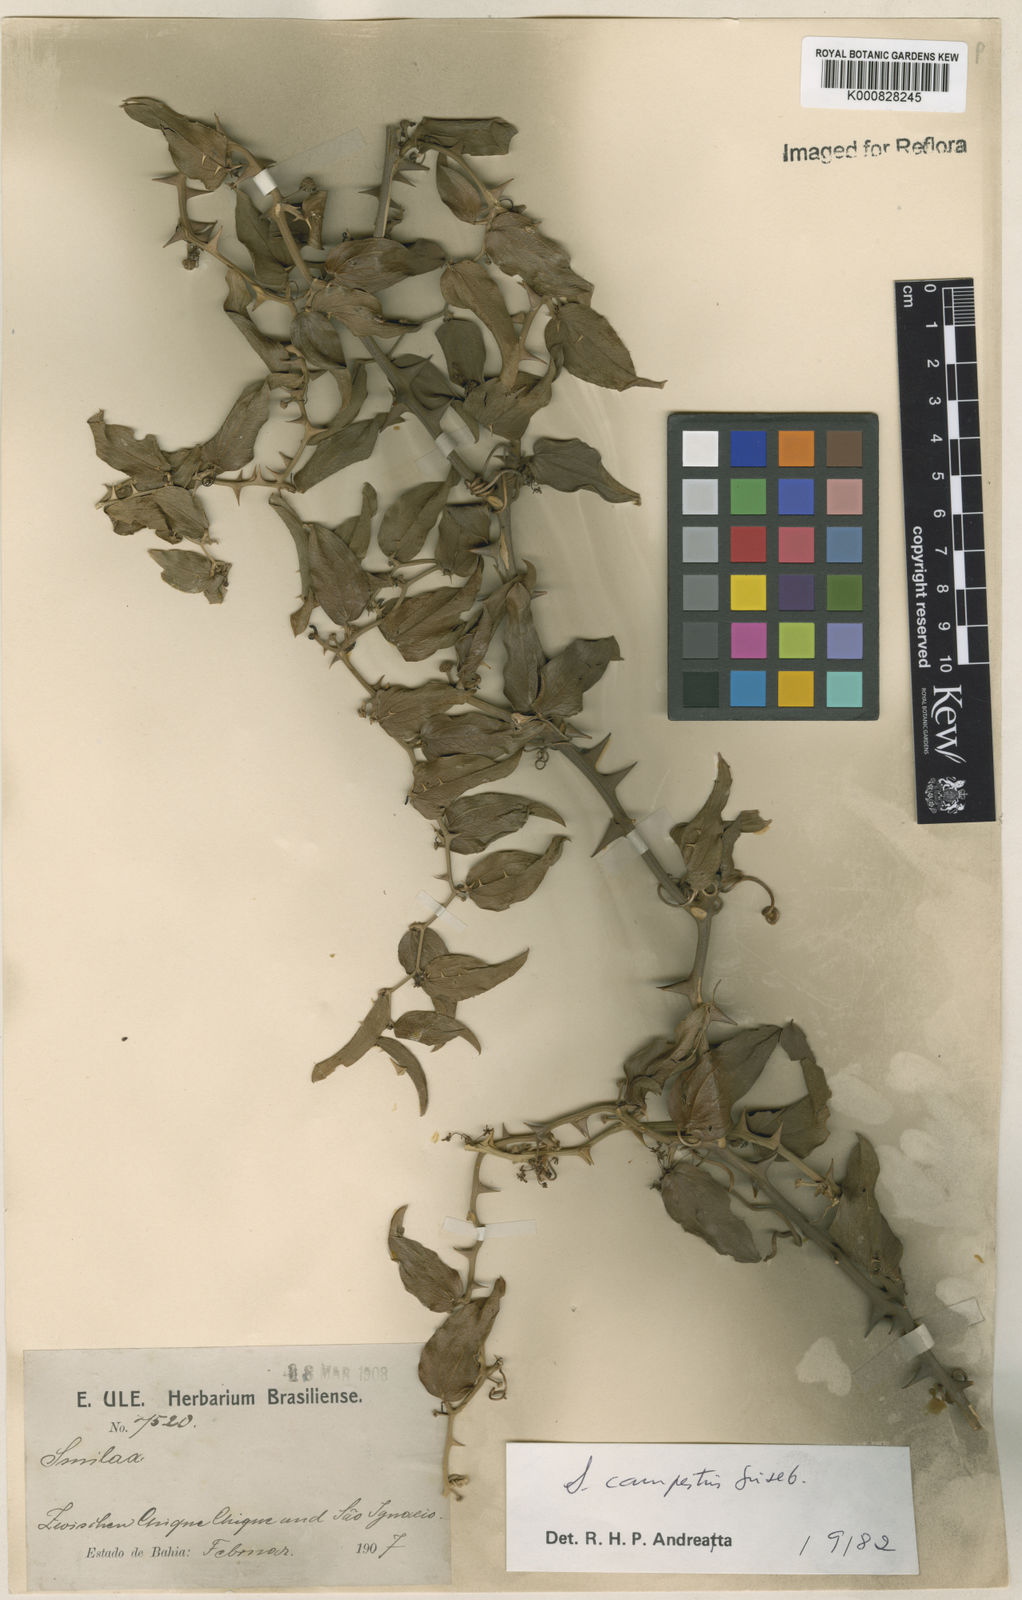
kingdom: Plantae
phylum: Tracheophyta
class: Liliopsida
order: Liliales
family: Smilacaceae
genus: Smilax
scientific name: Smilax campestris
